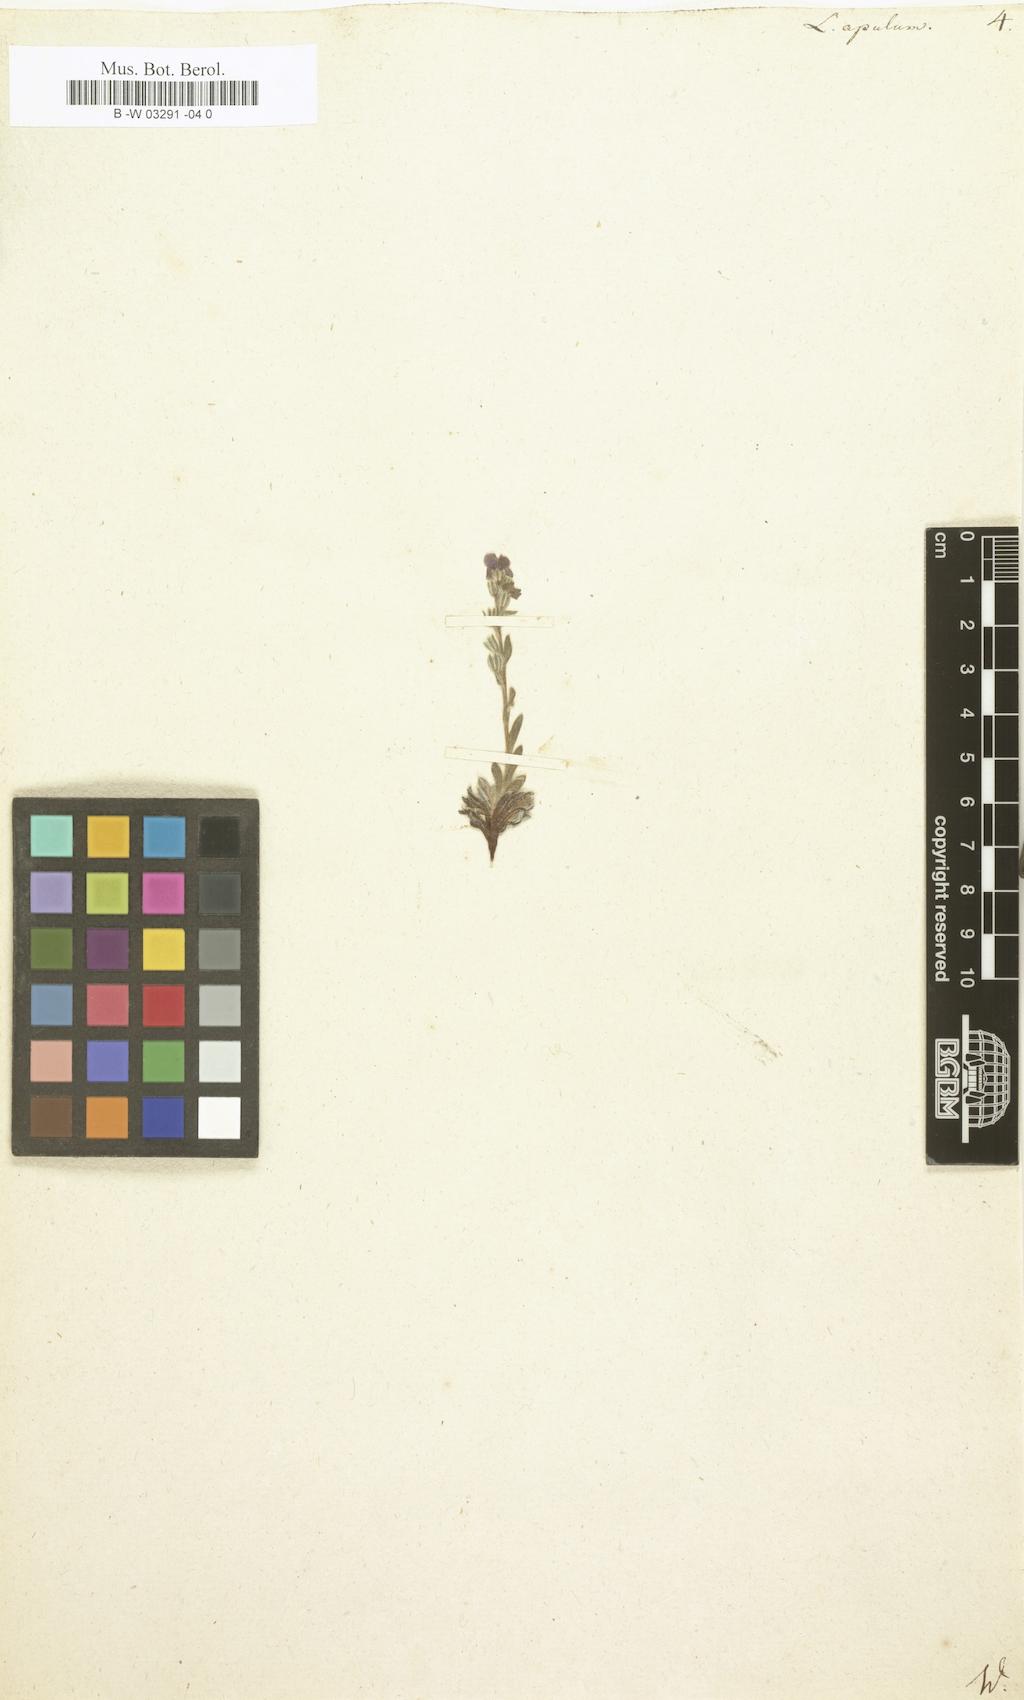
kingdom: Plantae
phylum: Tracheophyta
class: Magnoliopsida
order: Boraginales
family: Boraginaceae
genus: Neatostema
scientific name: Neatostema apulum
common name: Hairy sheepweed
